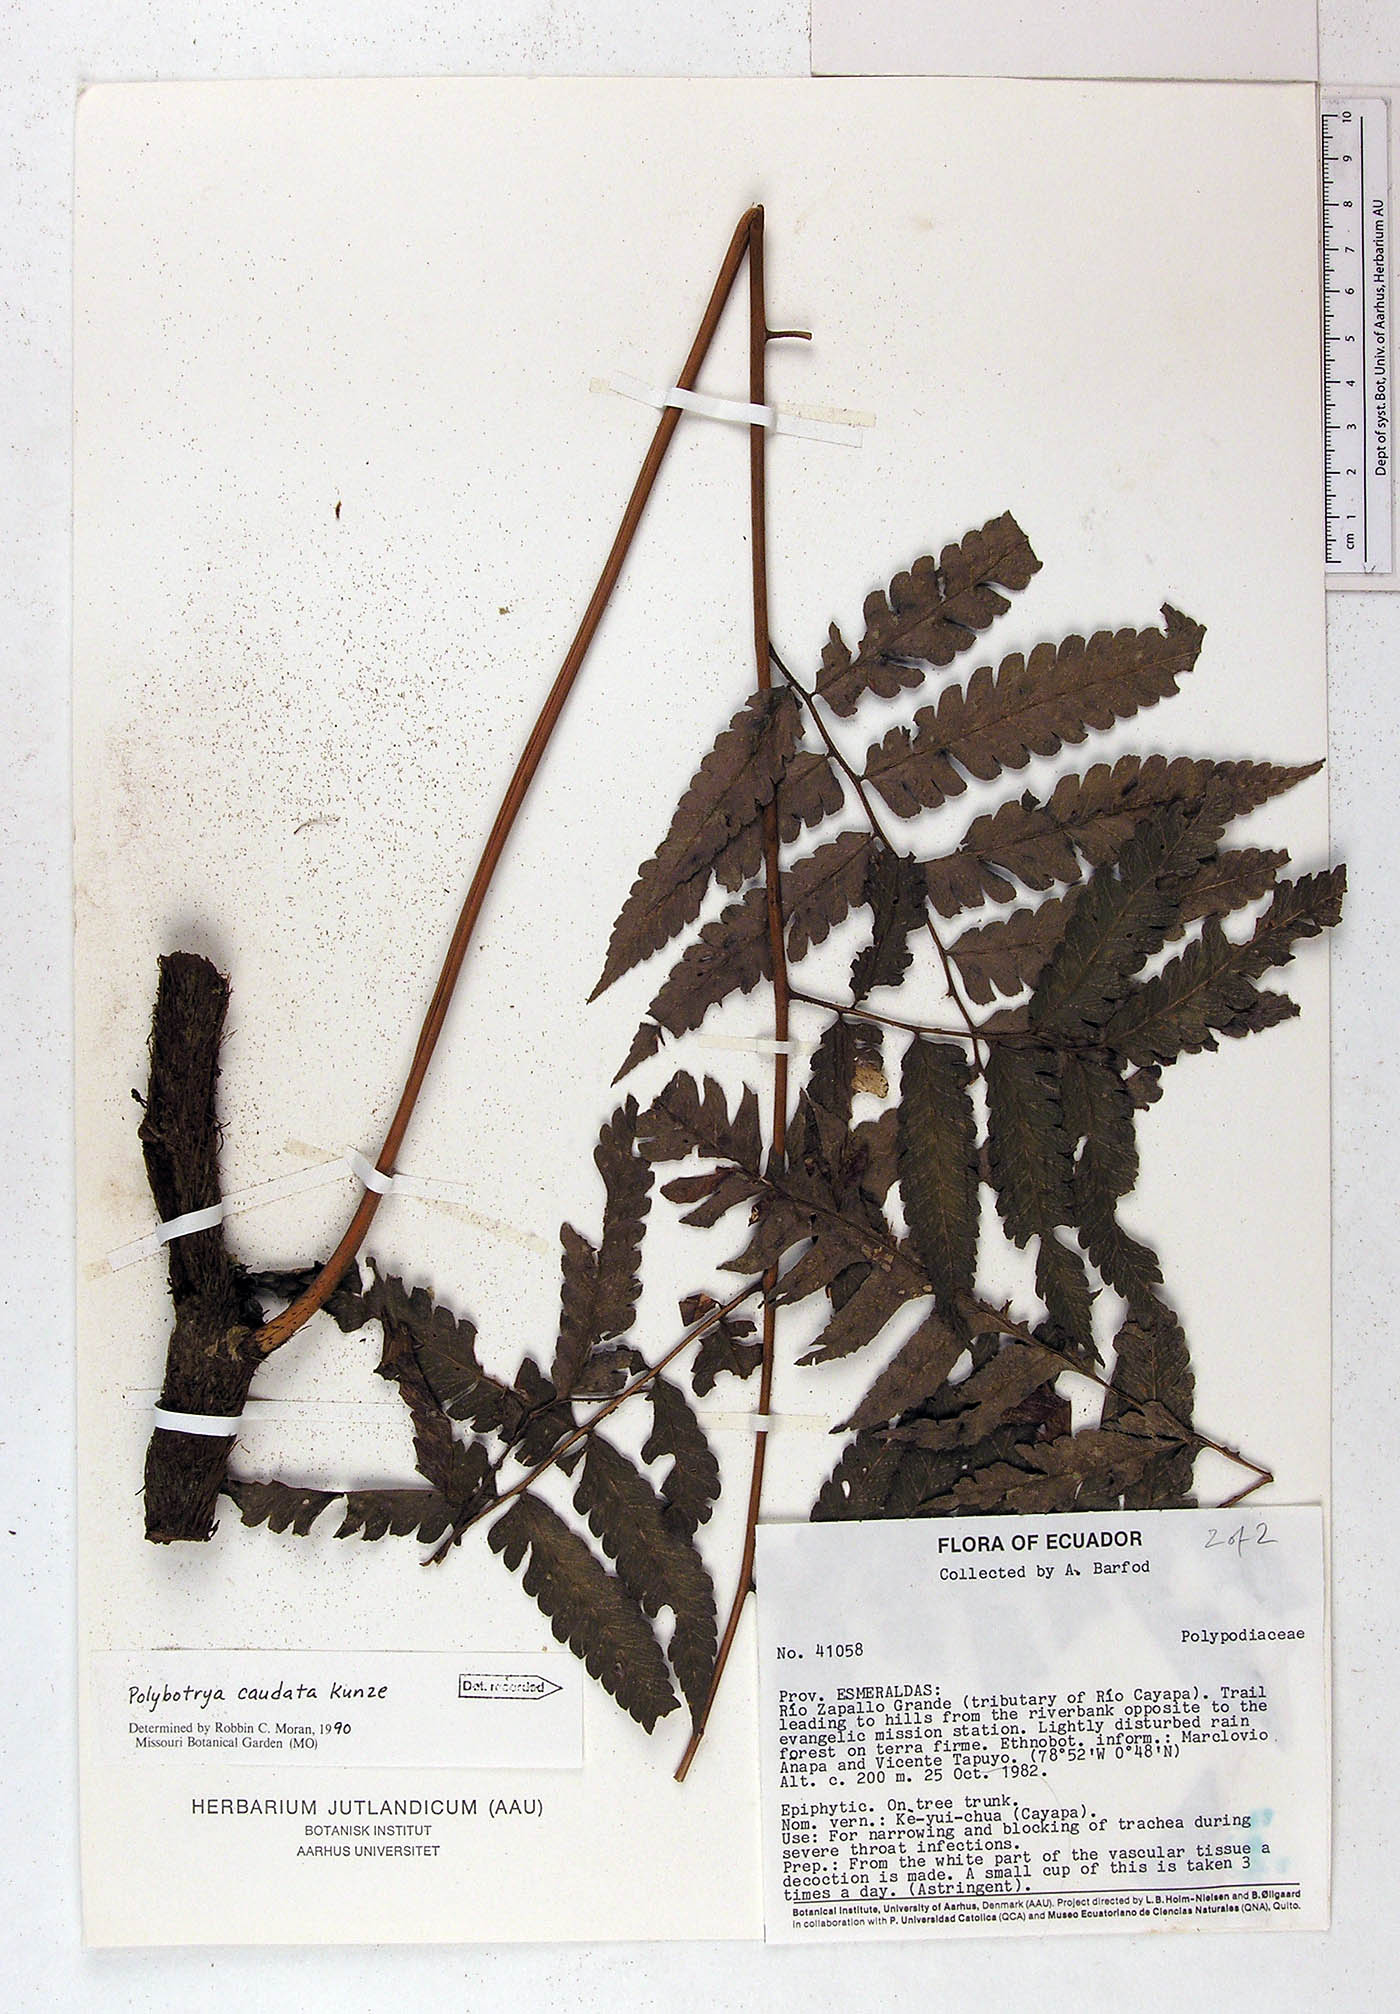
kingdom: Plantae
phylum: Tracheophyta
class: Polypodiopsida
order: Polypodiales
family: Dryopteridaceae
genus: Polybotrya
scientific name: Polybotrya caudata
